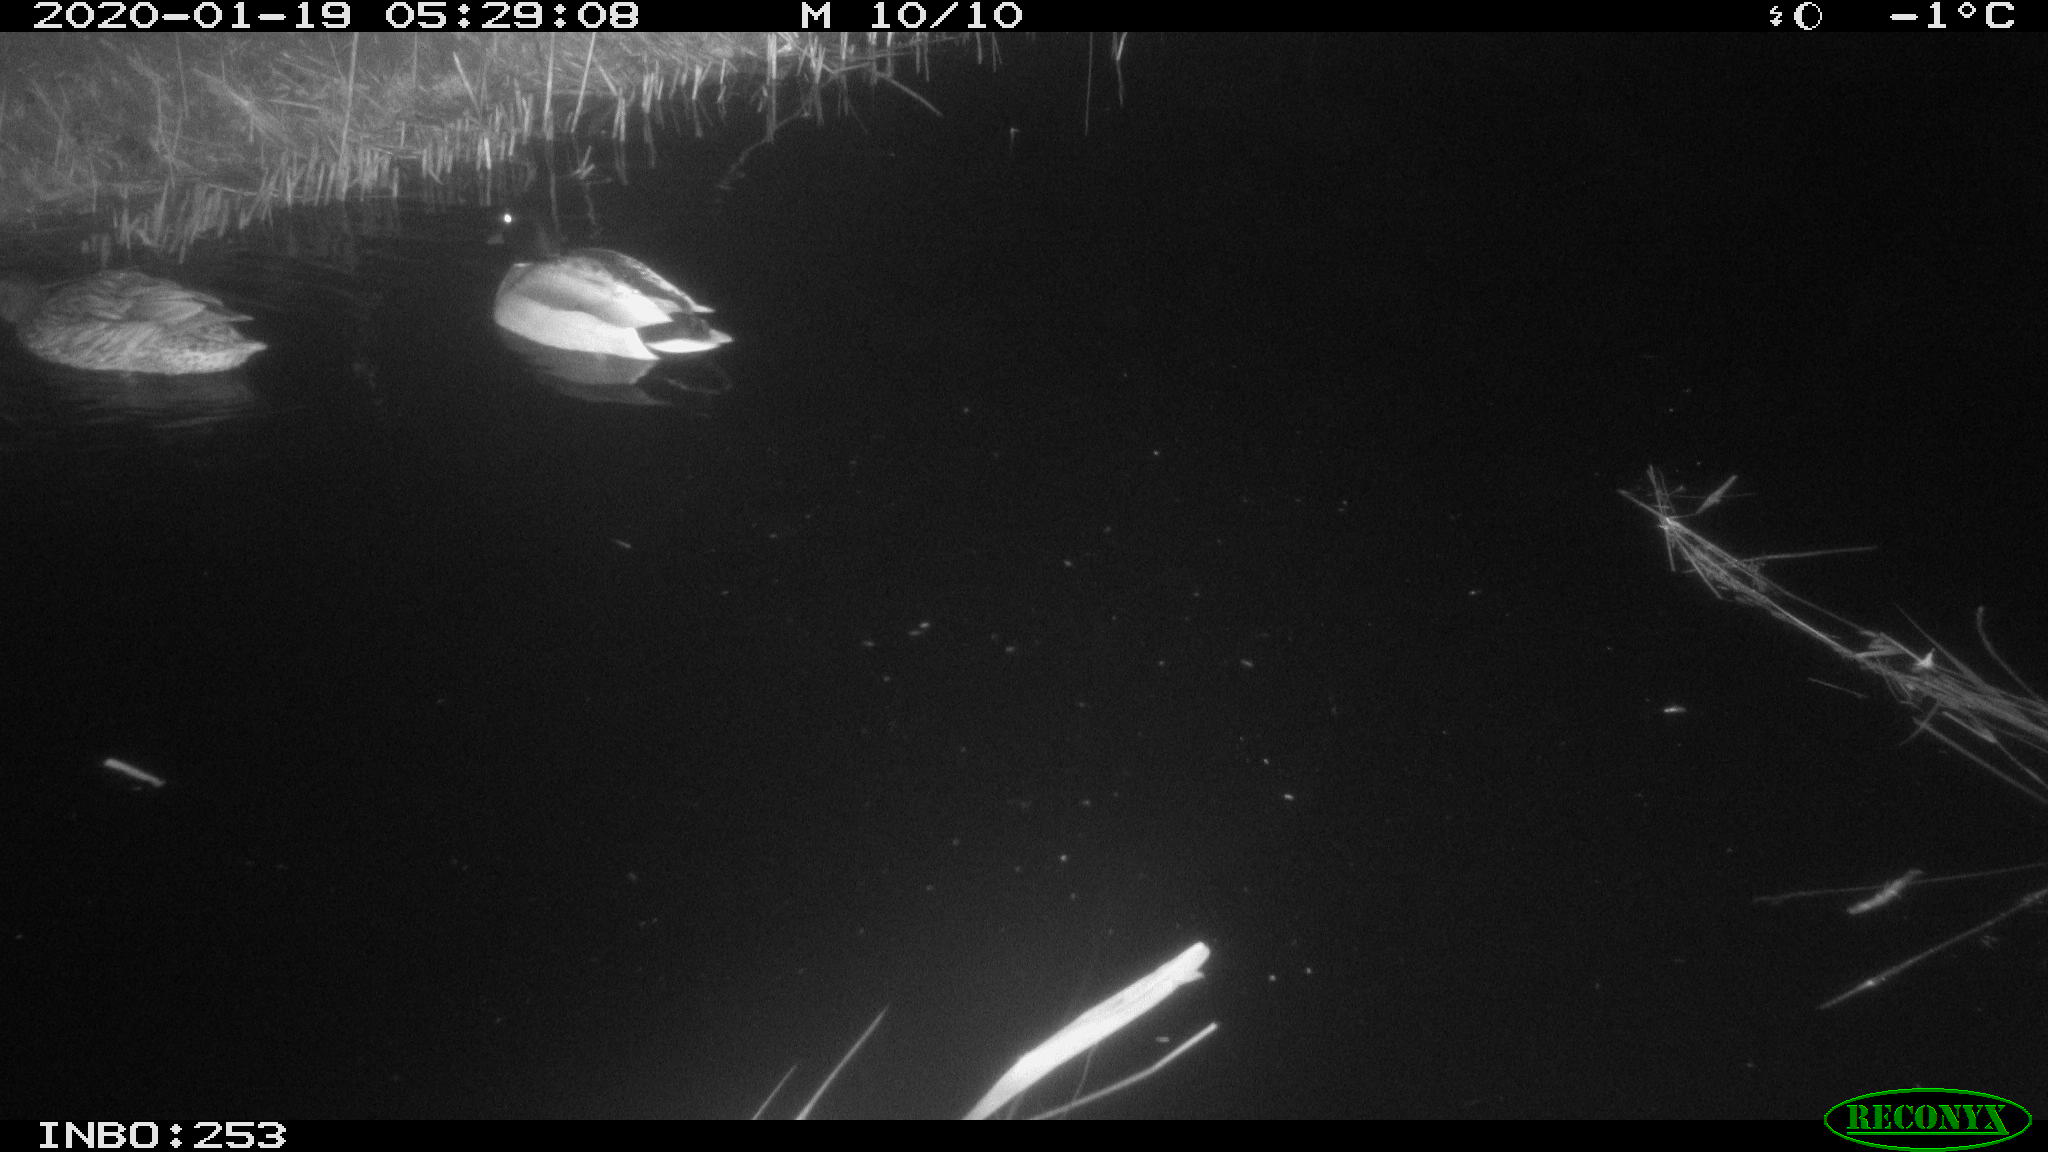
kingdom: Animalia
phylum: Chordata
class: Aves
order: Anseriformes
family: Anatidae
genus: Anas
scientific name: Anas platyrhynchos
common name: Mallard
